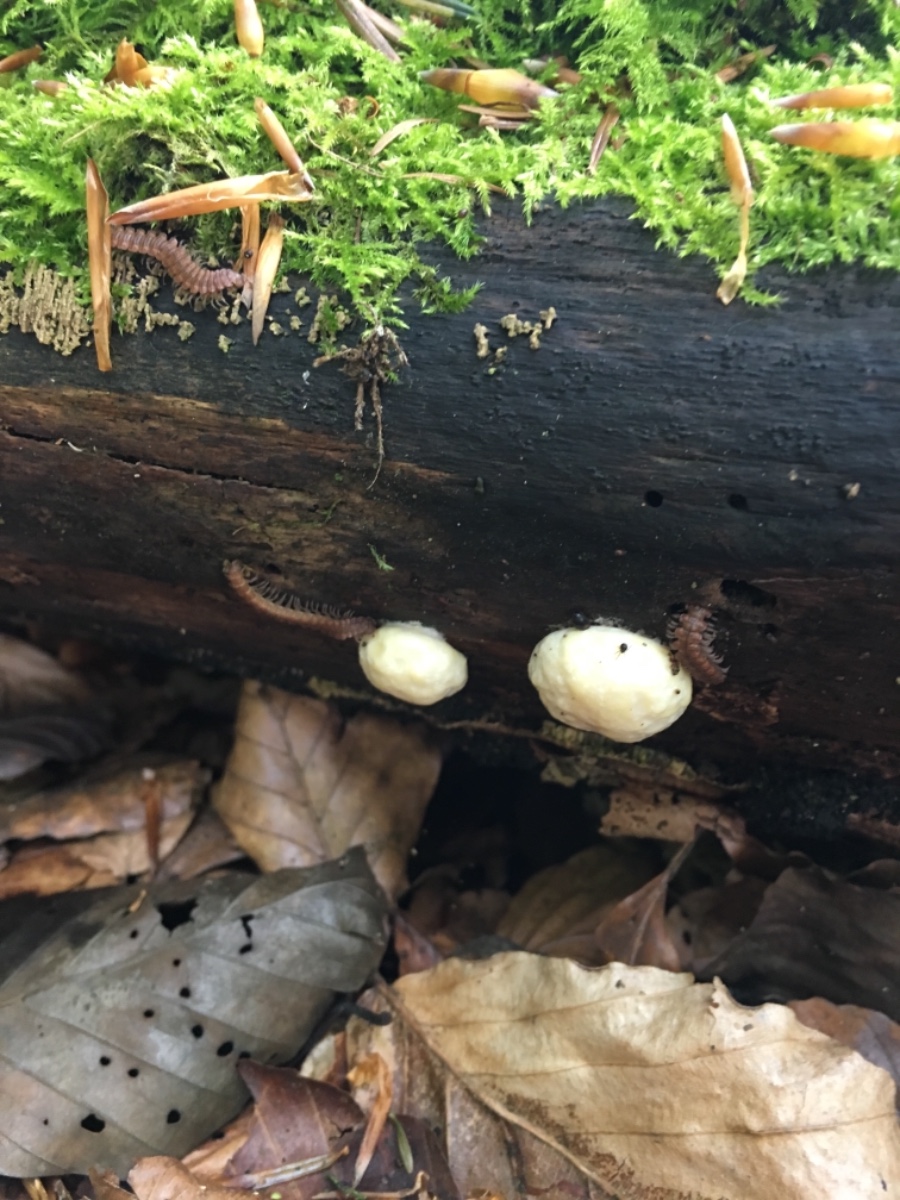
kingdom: Protozoa
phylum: Mycetozoa
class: Myxomycetes
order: Cribrariales
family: Tubiferaceae
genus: Reticularia
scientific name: Reticularia lycoperdon
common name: skinnende støvpude
